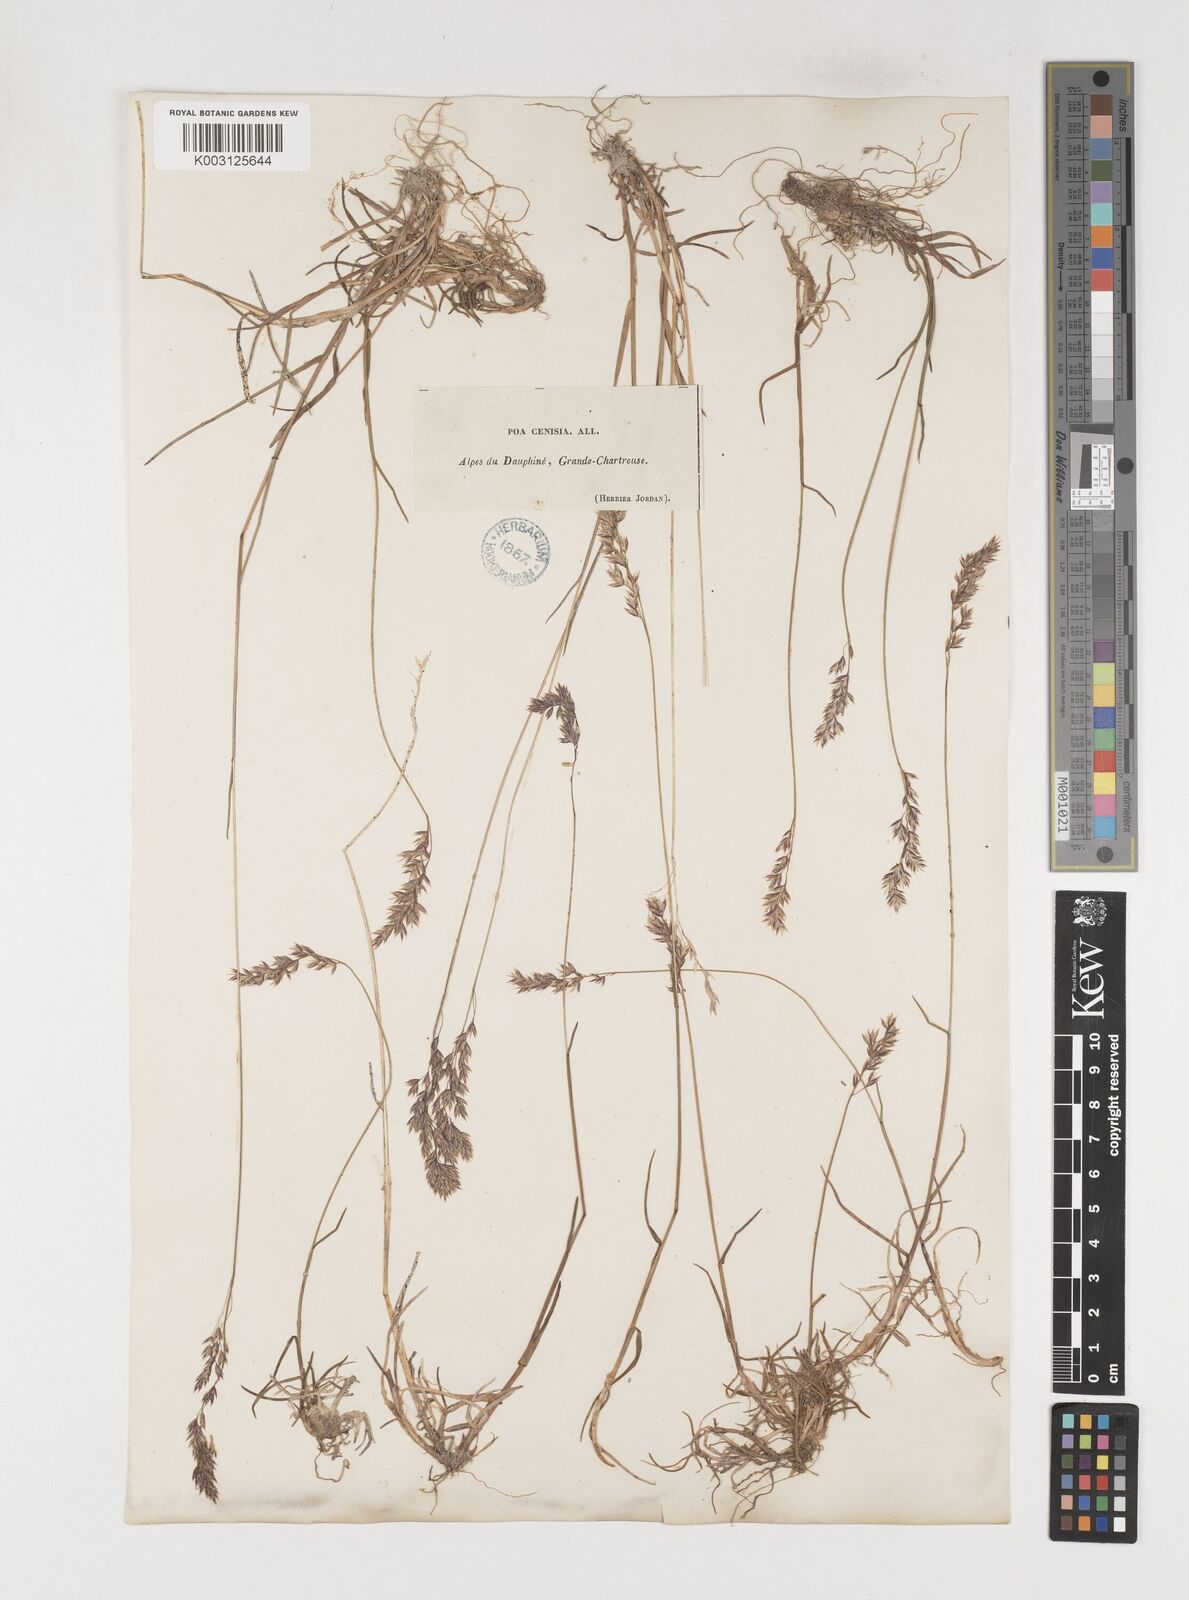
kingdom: Plantae
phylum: Tracheophyta
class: Liliopsida
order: Poales
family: Poaceae
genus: Poa
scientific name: Poa
